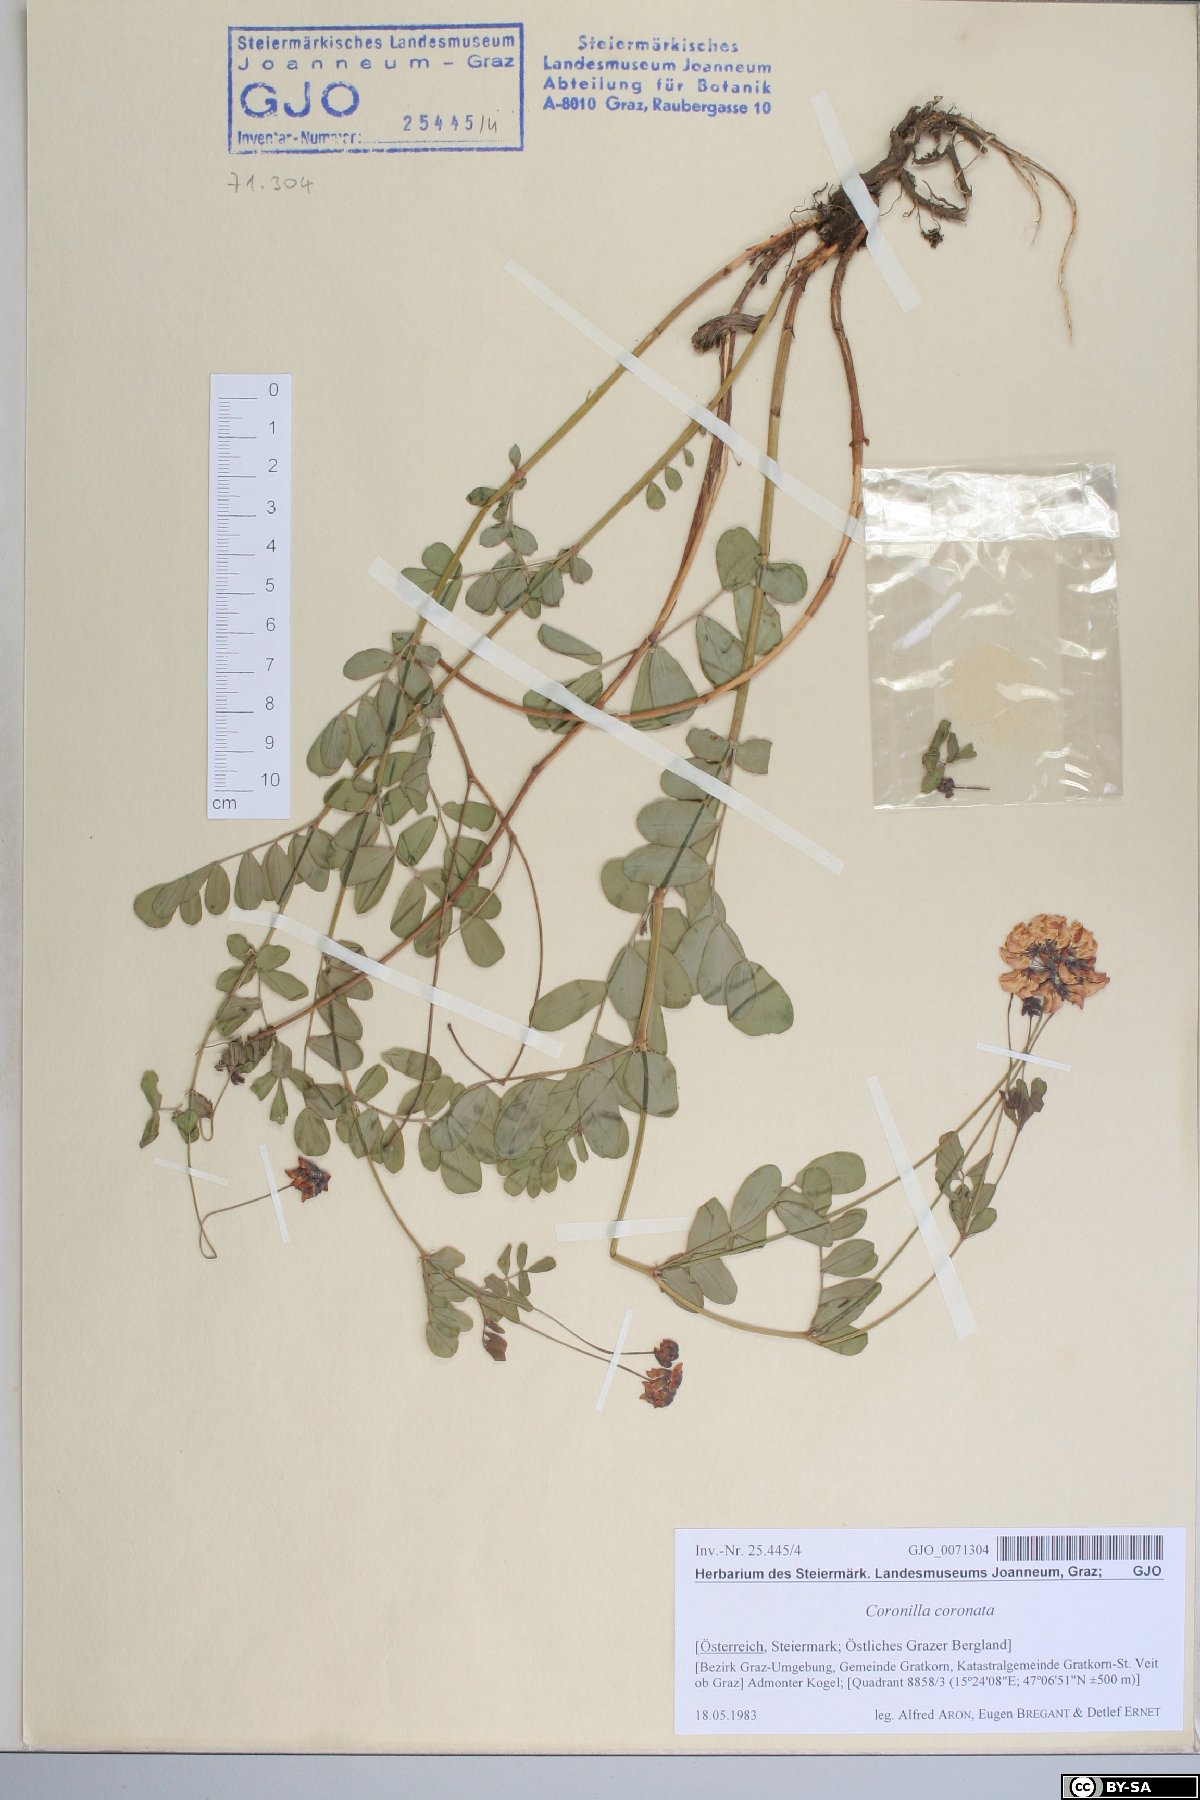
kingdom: Plantae
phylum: Tracheophyta
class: Magnoliopsida
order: Fabales
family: Fabaceae
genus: Coronilla
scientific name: Coronilla coronata
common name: Scorpion-vetch
